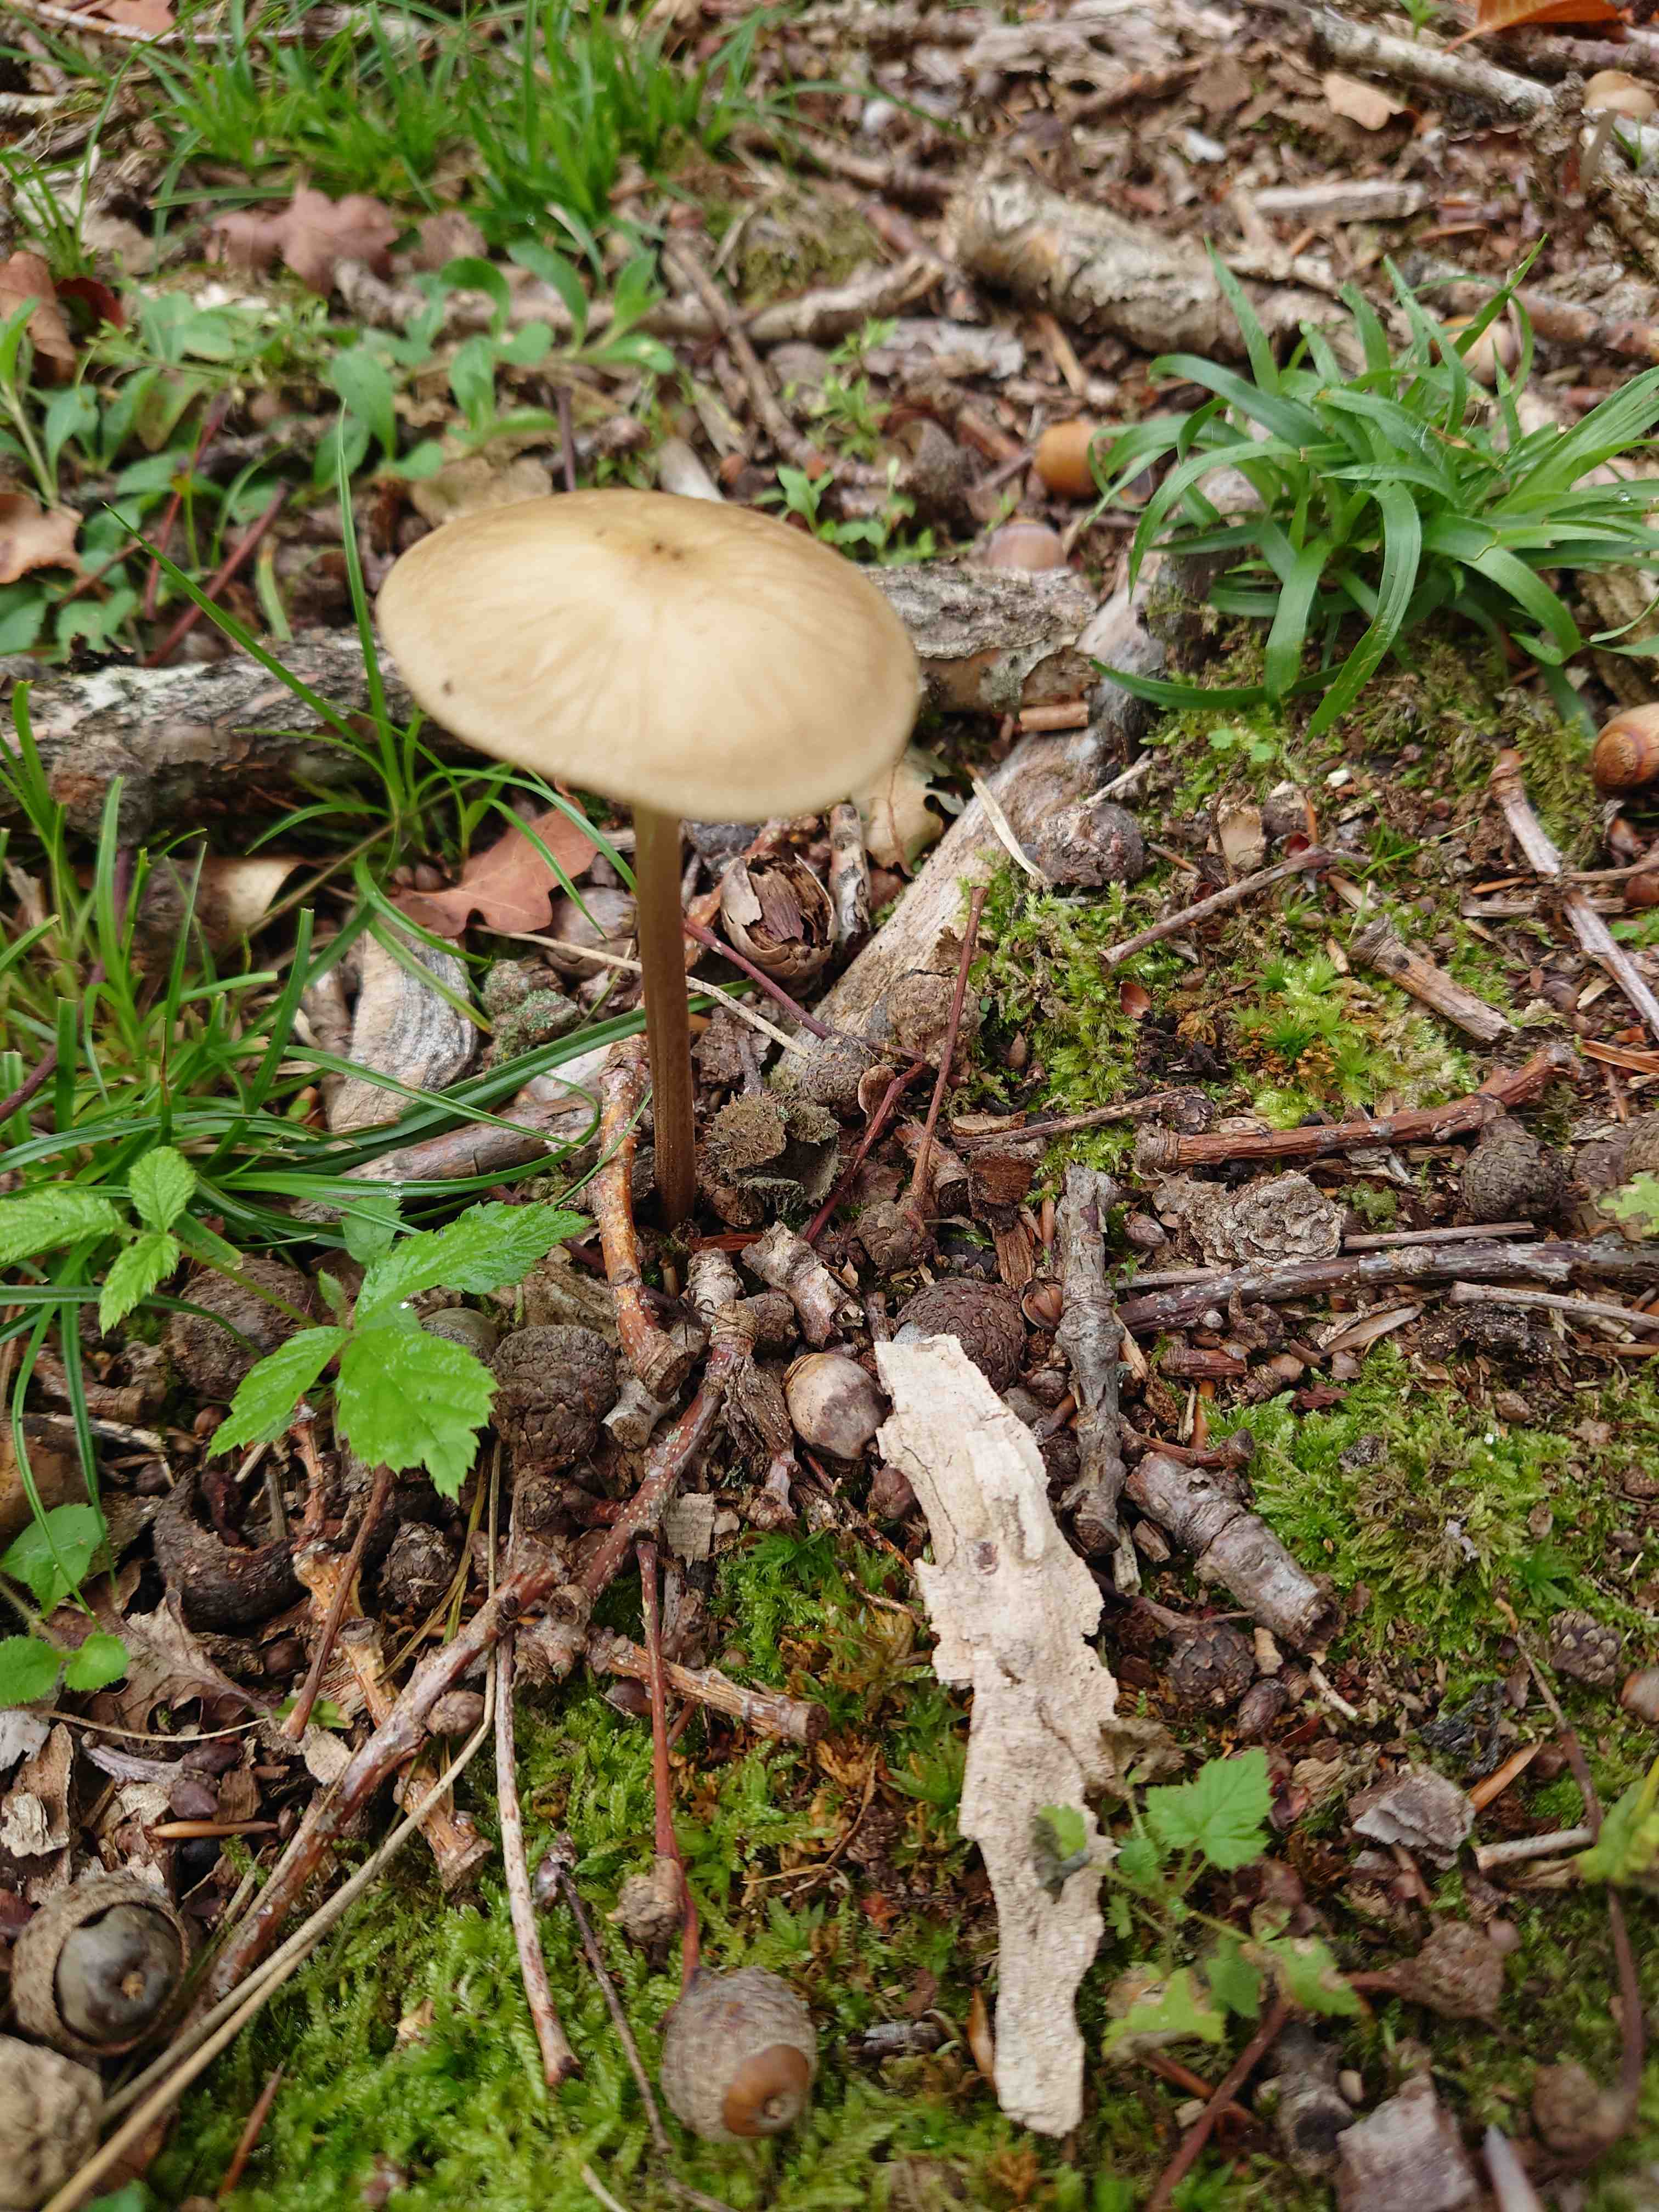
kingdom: Fungi
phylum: Basidiomycota
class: Agaricomycetes
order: Agaricales
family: Physalacriaceae
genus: Hymenopellis
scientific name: Hymenopellis radicata
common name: almindelig pælerodshat
